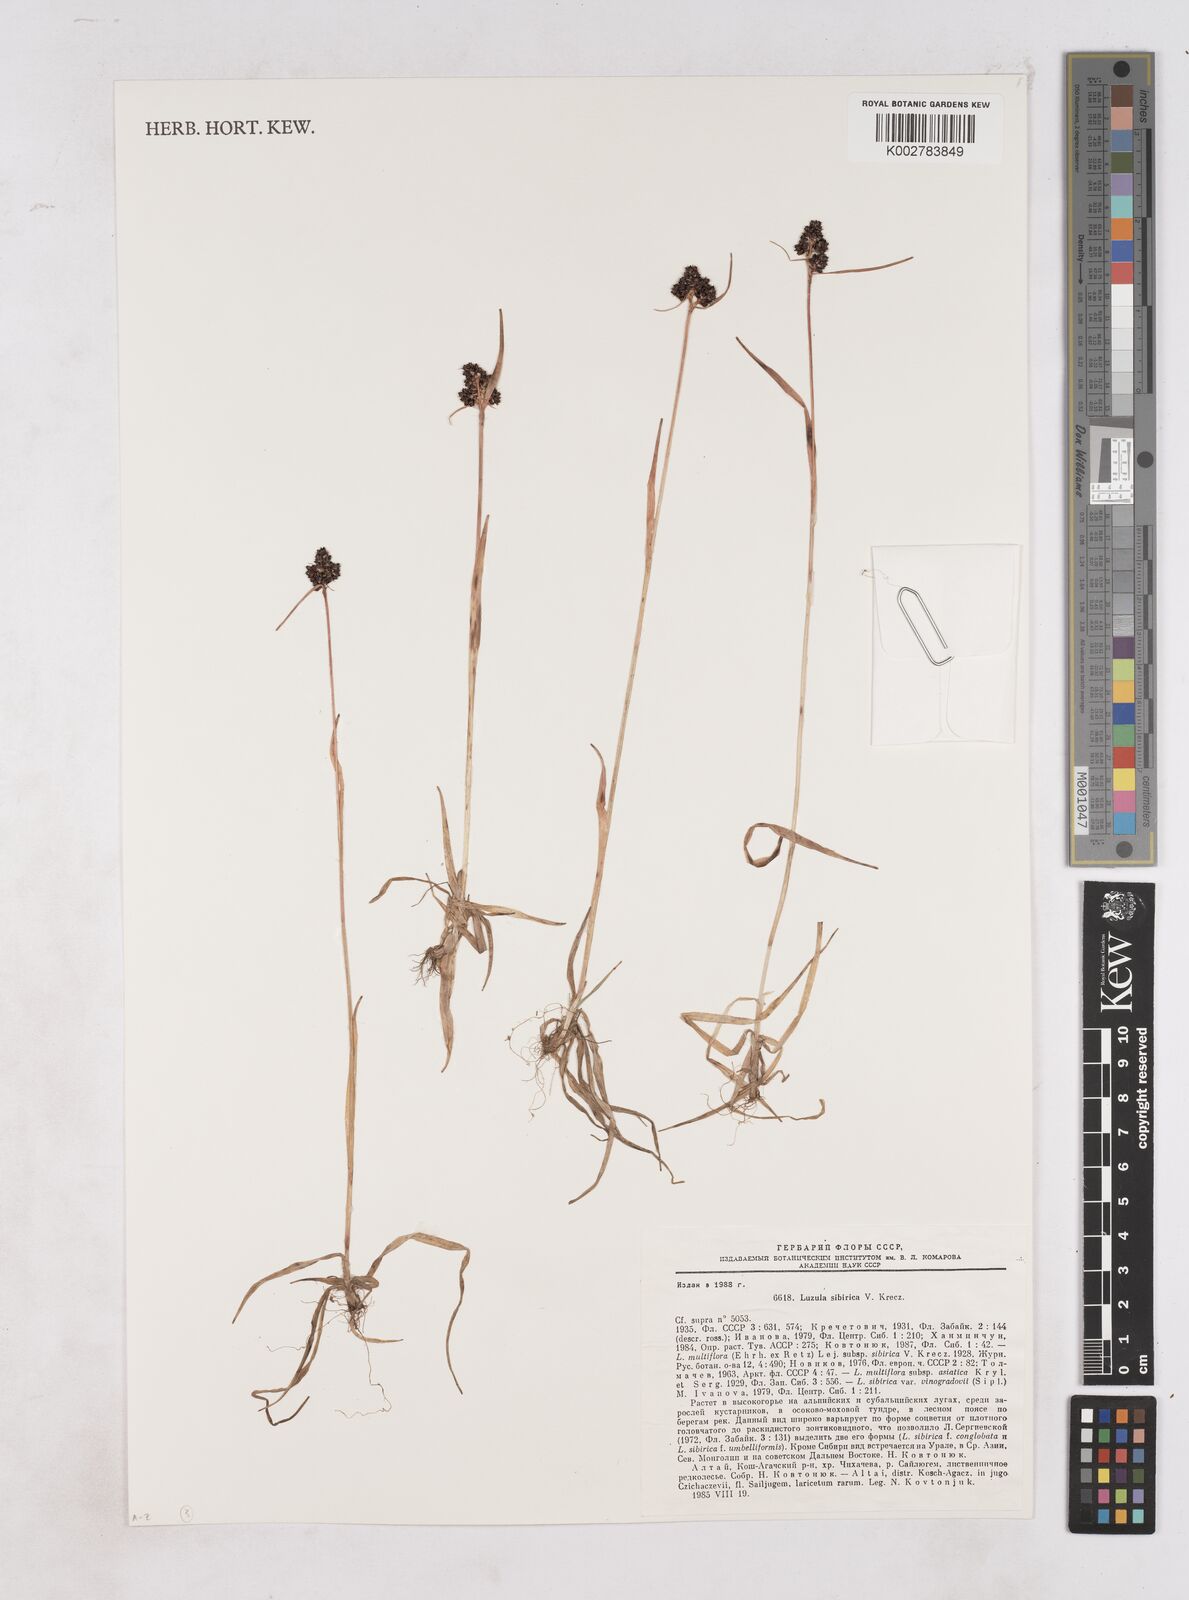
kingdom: Plantae
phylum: Tracheophyta
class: Liliopsida
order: Poales
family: Juncaceae
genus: Luzula
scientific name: Luzula multiflora
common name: Heath wood-rush
